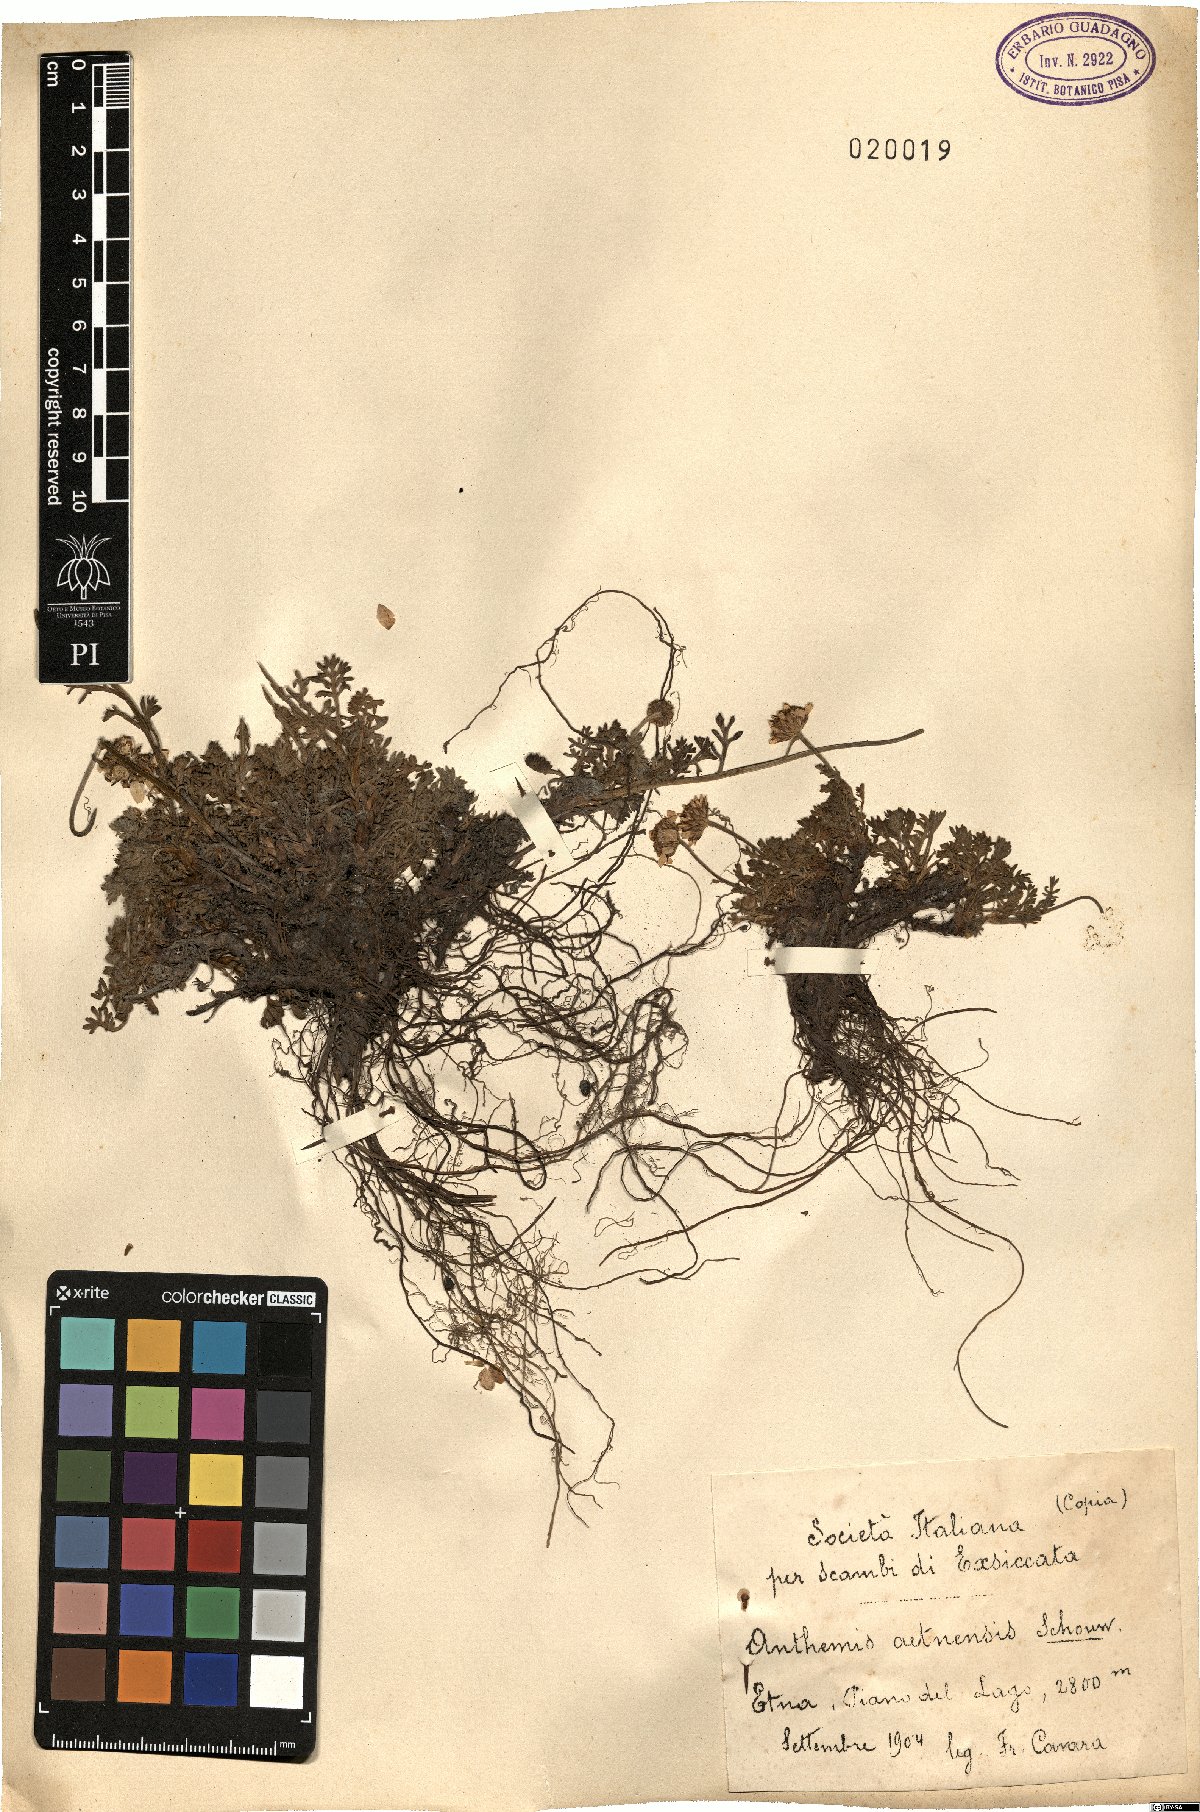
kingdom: Plantae
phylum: Tracheophyta
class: Magnoliopsida
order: Asterales
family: Asteraceae
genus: Anthemis
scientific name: Anthemis aetnensis
